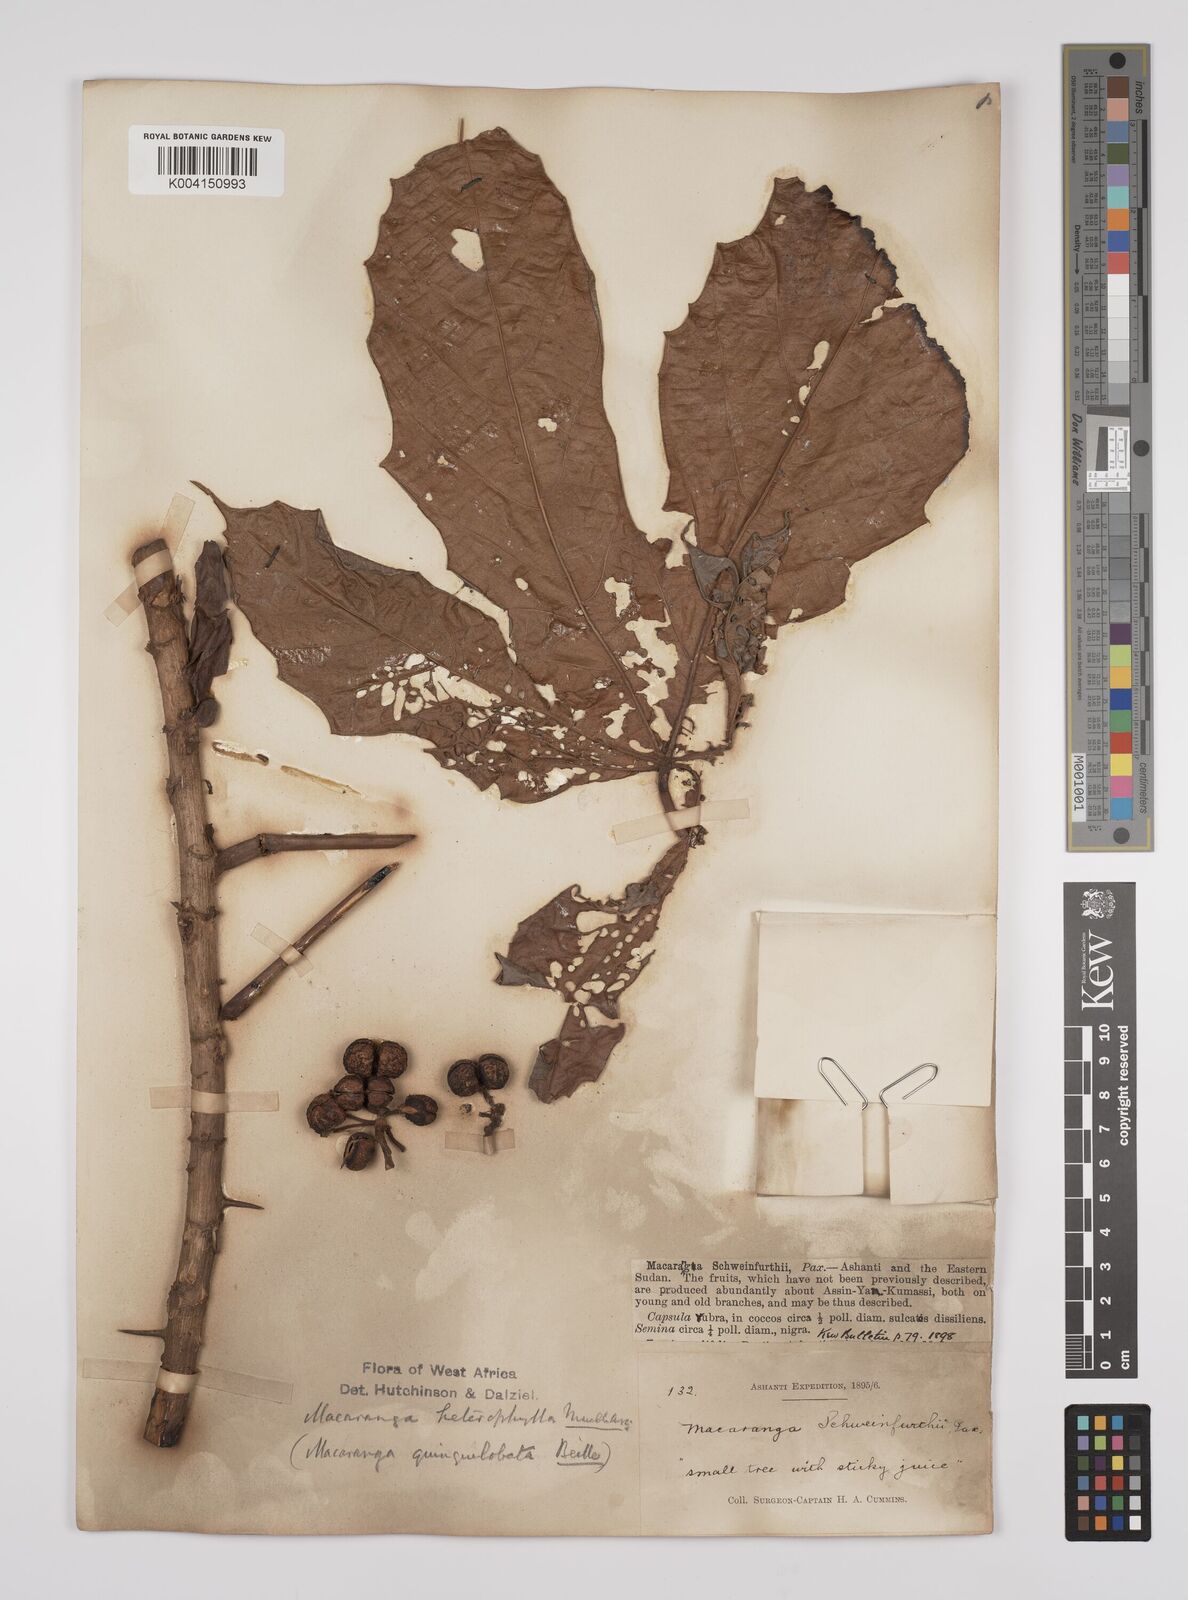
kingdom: Plantae
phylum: Tracheophyta
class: Magnoliopsida
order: Malpighiales
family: Euphorbiaceae
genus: Macaranga
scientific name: Macaranga heterophylla
